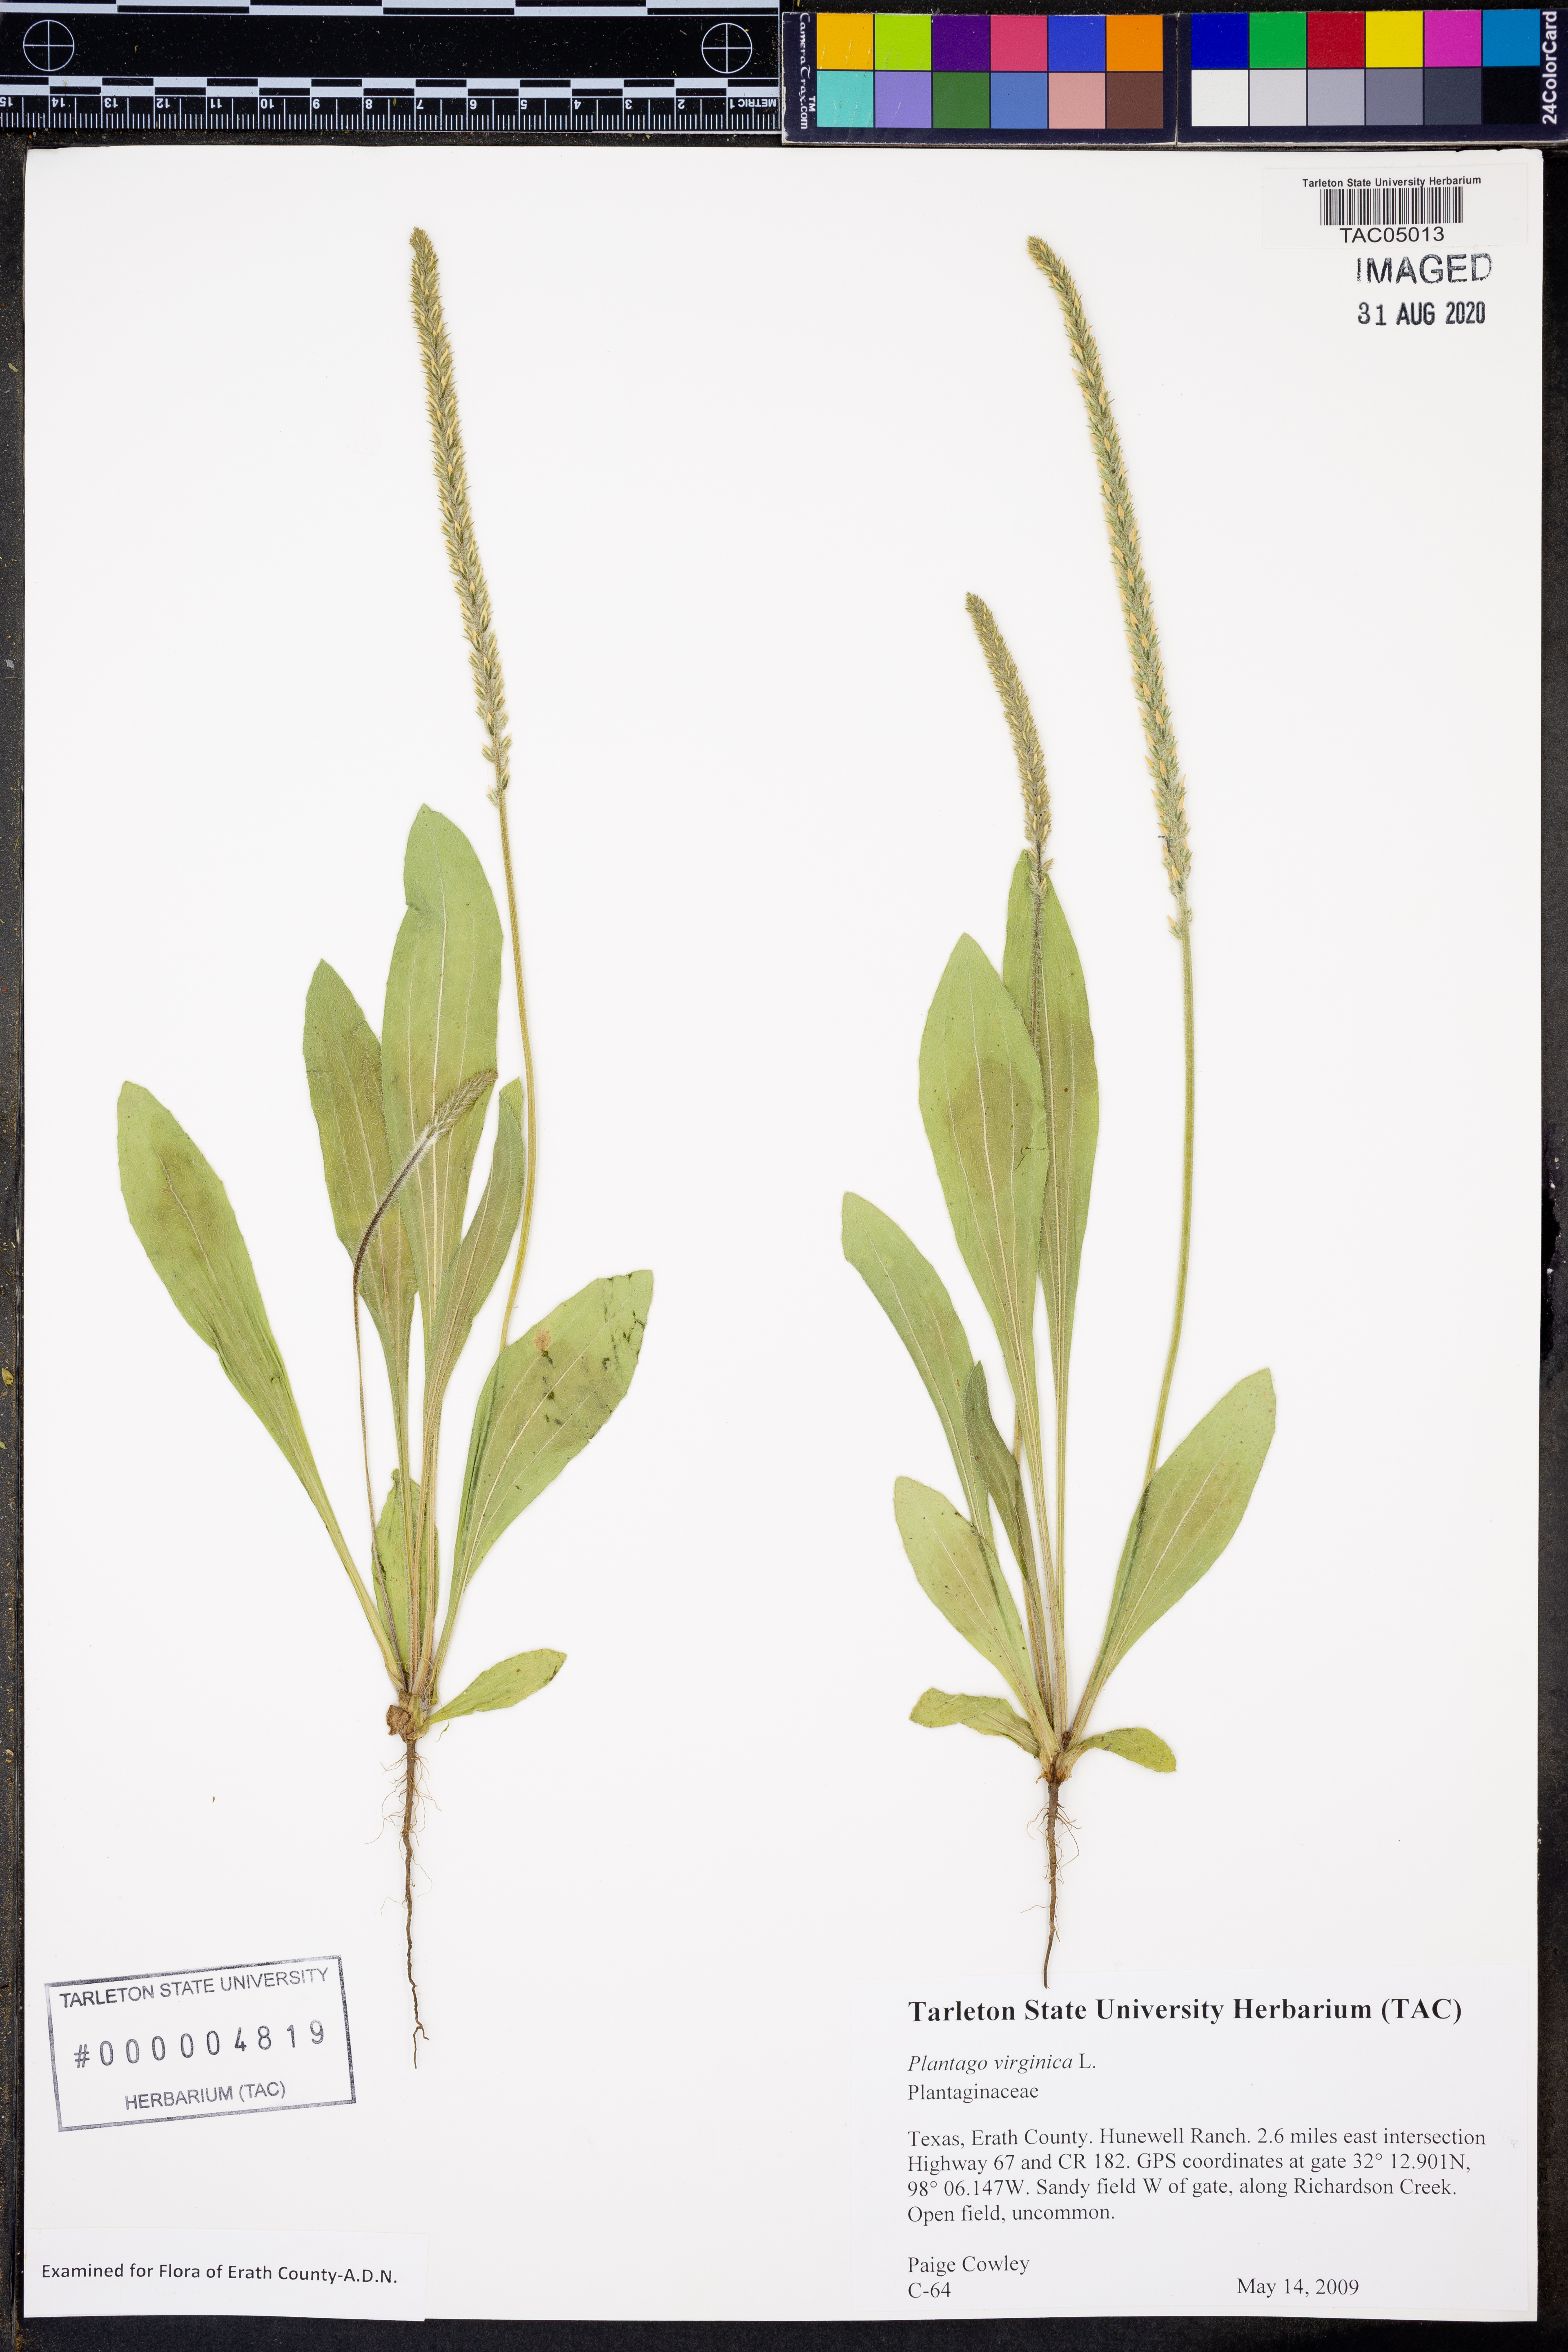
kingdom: Plantae
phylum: Tracheophyta
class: Magnoliopsida
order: Lamiales
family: Plantaginaceae
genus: Plantago
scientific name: Plantago virginica
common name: Hoary plantain
